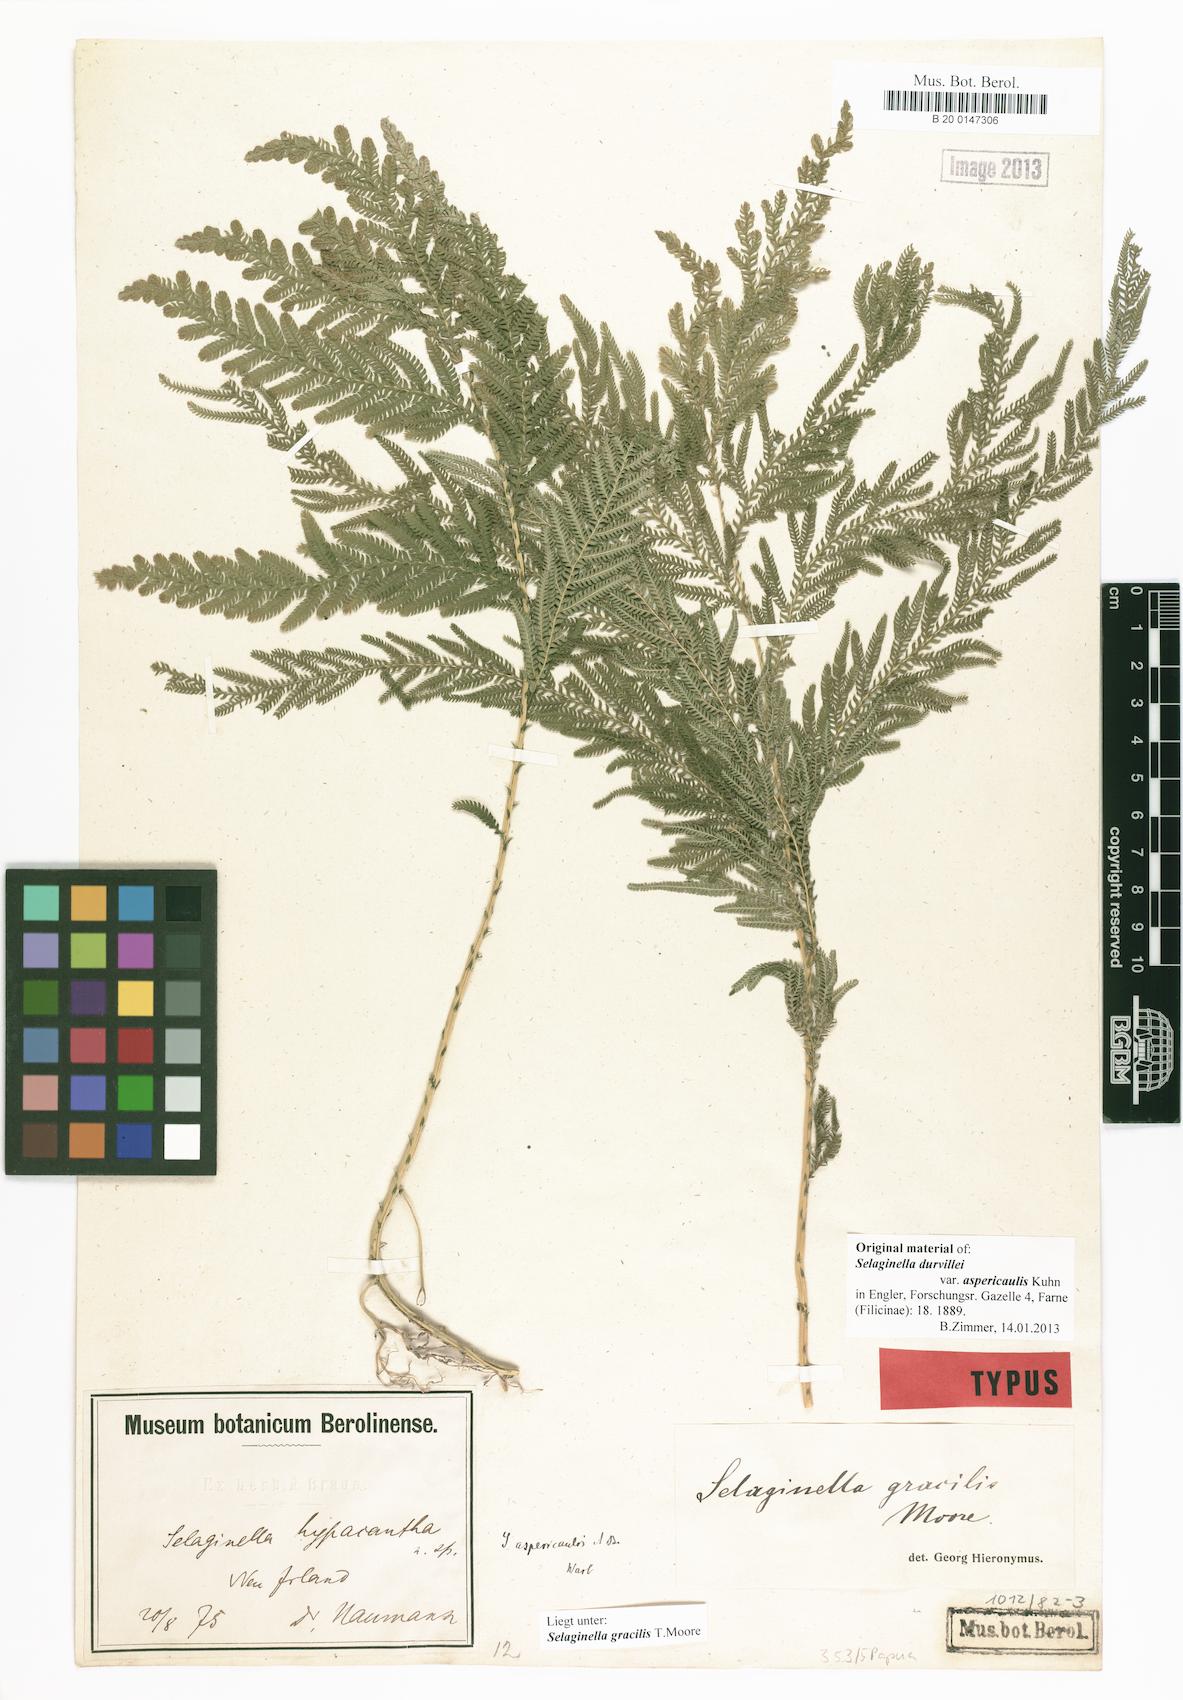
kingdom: Plantae
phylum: Tracheophyta
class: Lycopodiopsida
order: Selaginellales
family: Selaginellaceae
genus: Selaginella
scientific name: Selaginella gracilis
